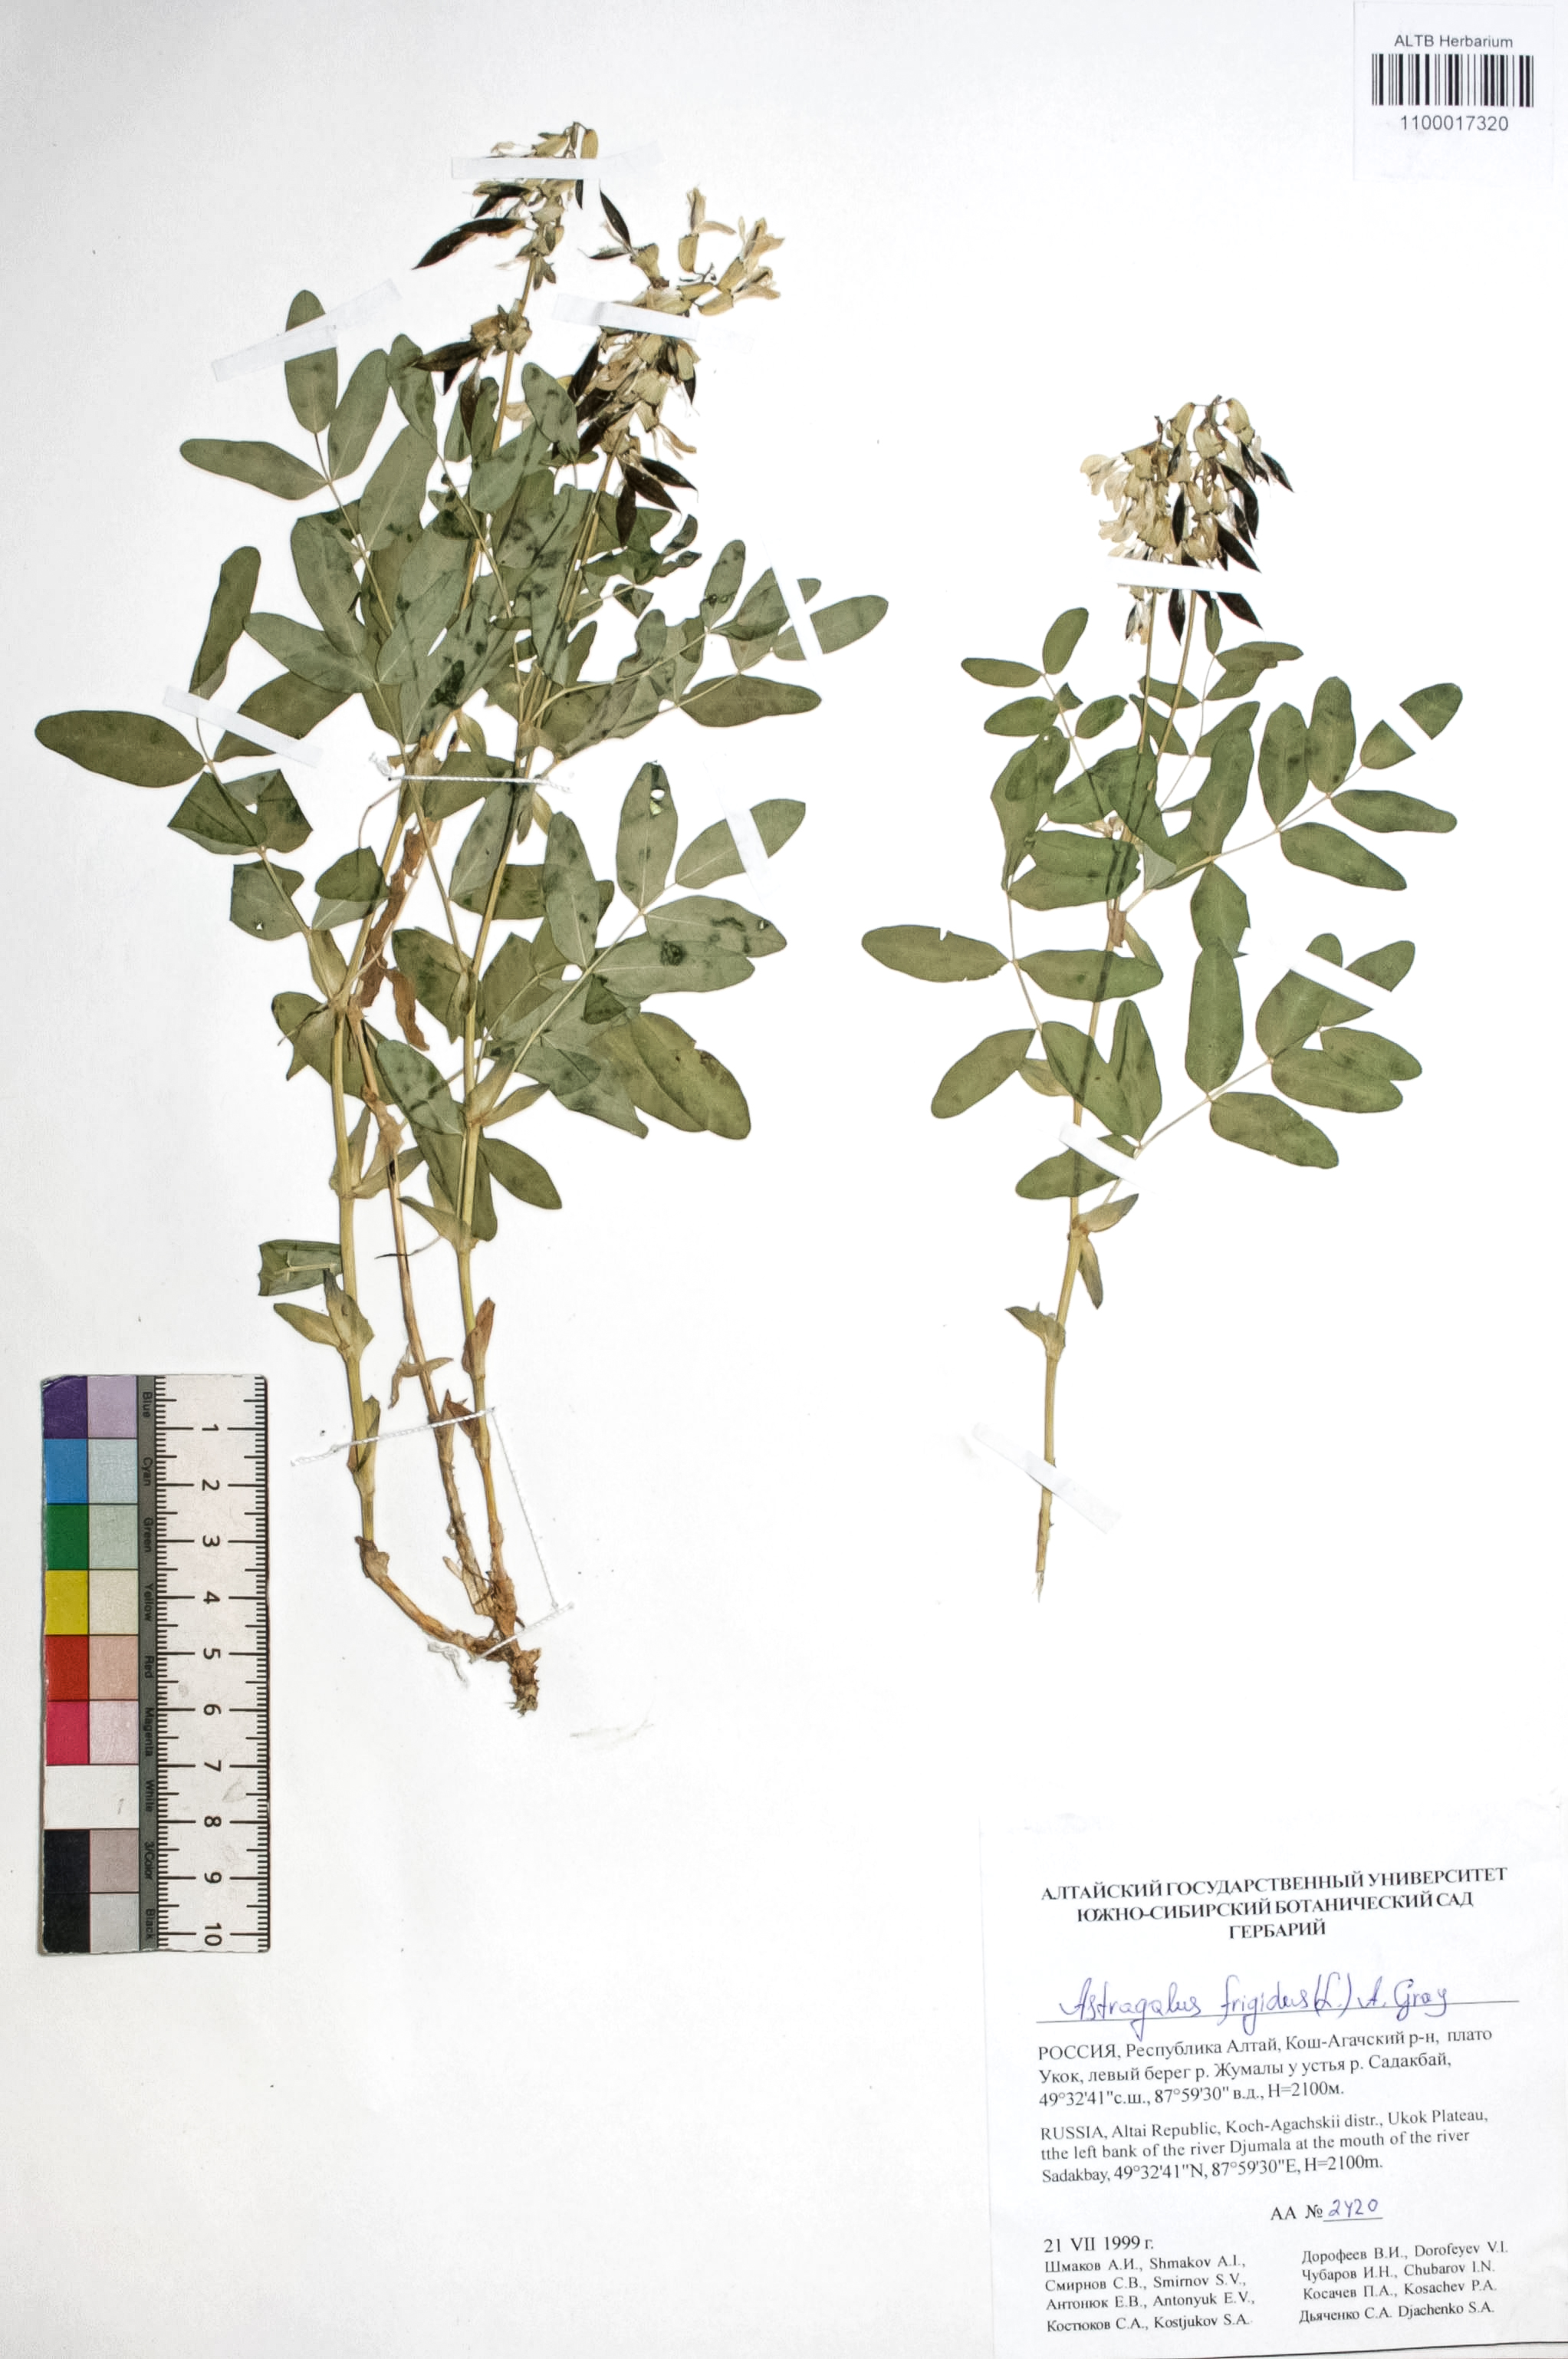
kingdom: Plantae
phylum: Tracheophyta
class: Magnoliopsida
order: Fabales
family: Fabaceae
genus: Astragalus
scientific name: Astragalus frigidus
